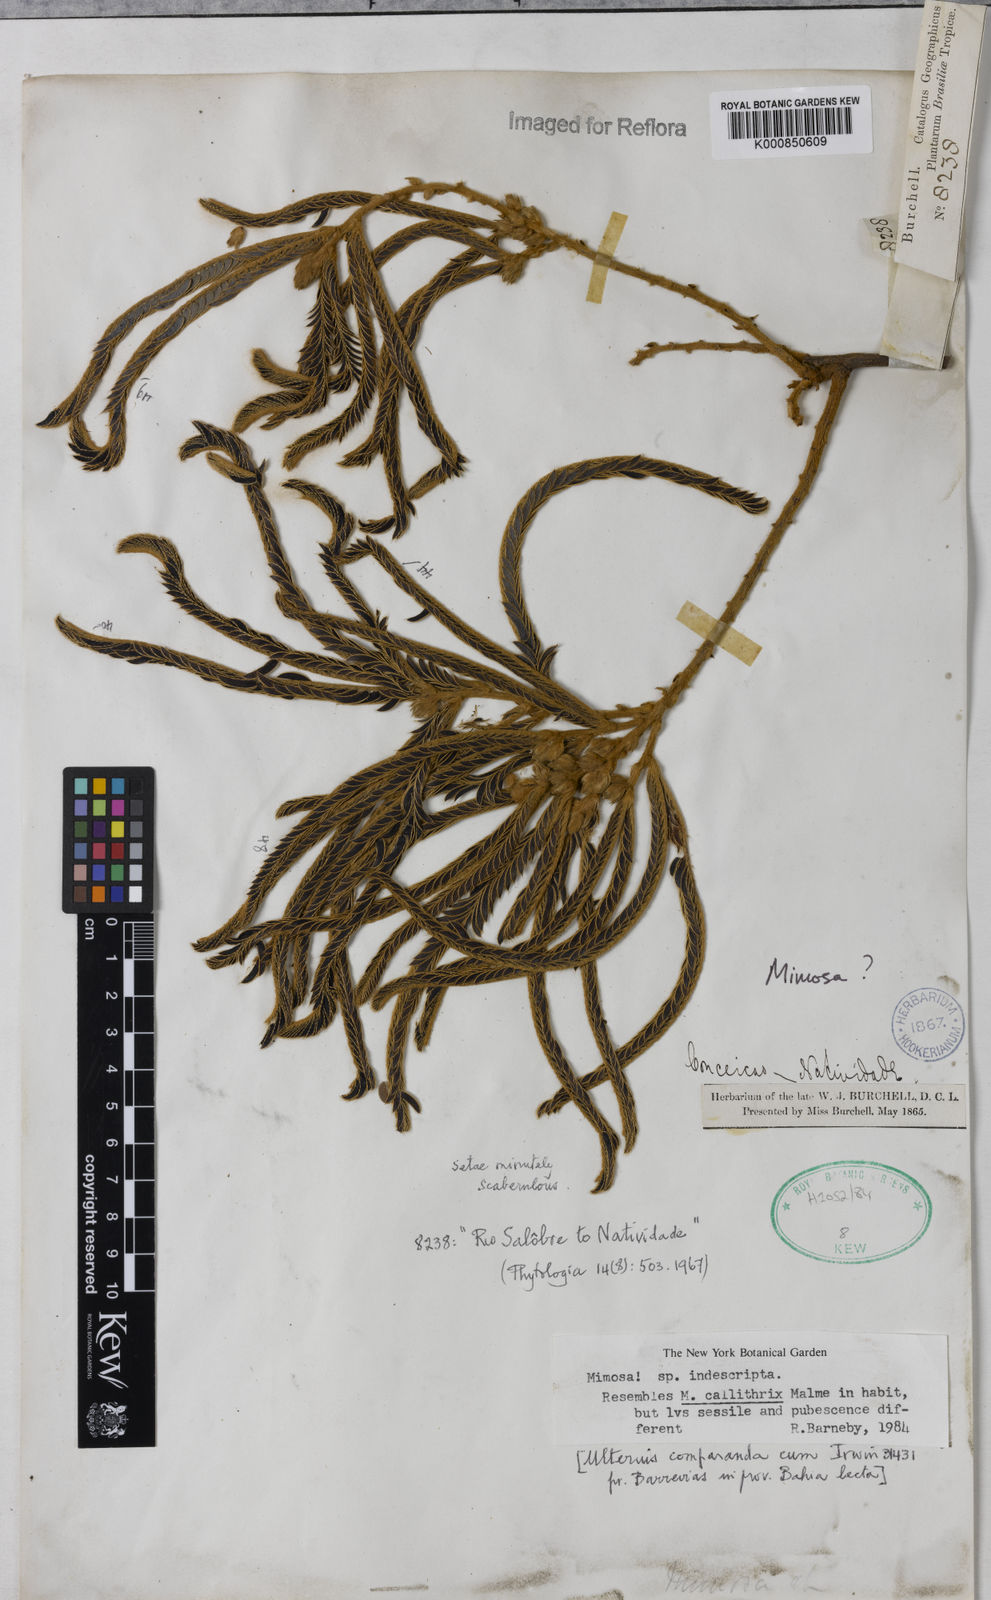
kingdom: Plantae
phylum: Tracheophyta
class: Magnoliopsida
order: Fabales
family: Fabaceae
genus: Mimosa
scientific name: Mimosa
